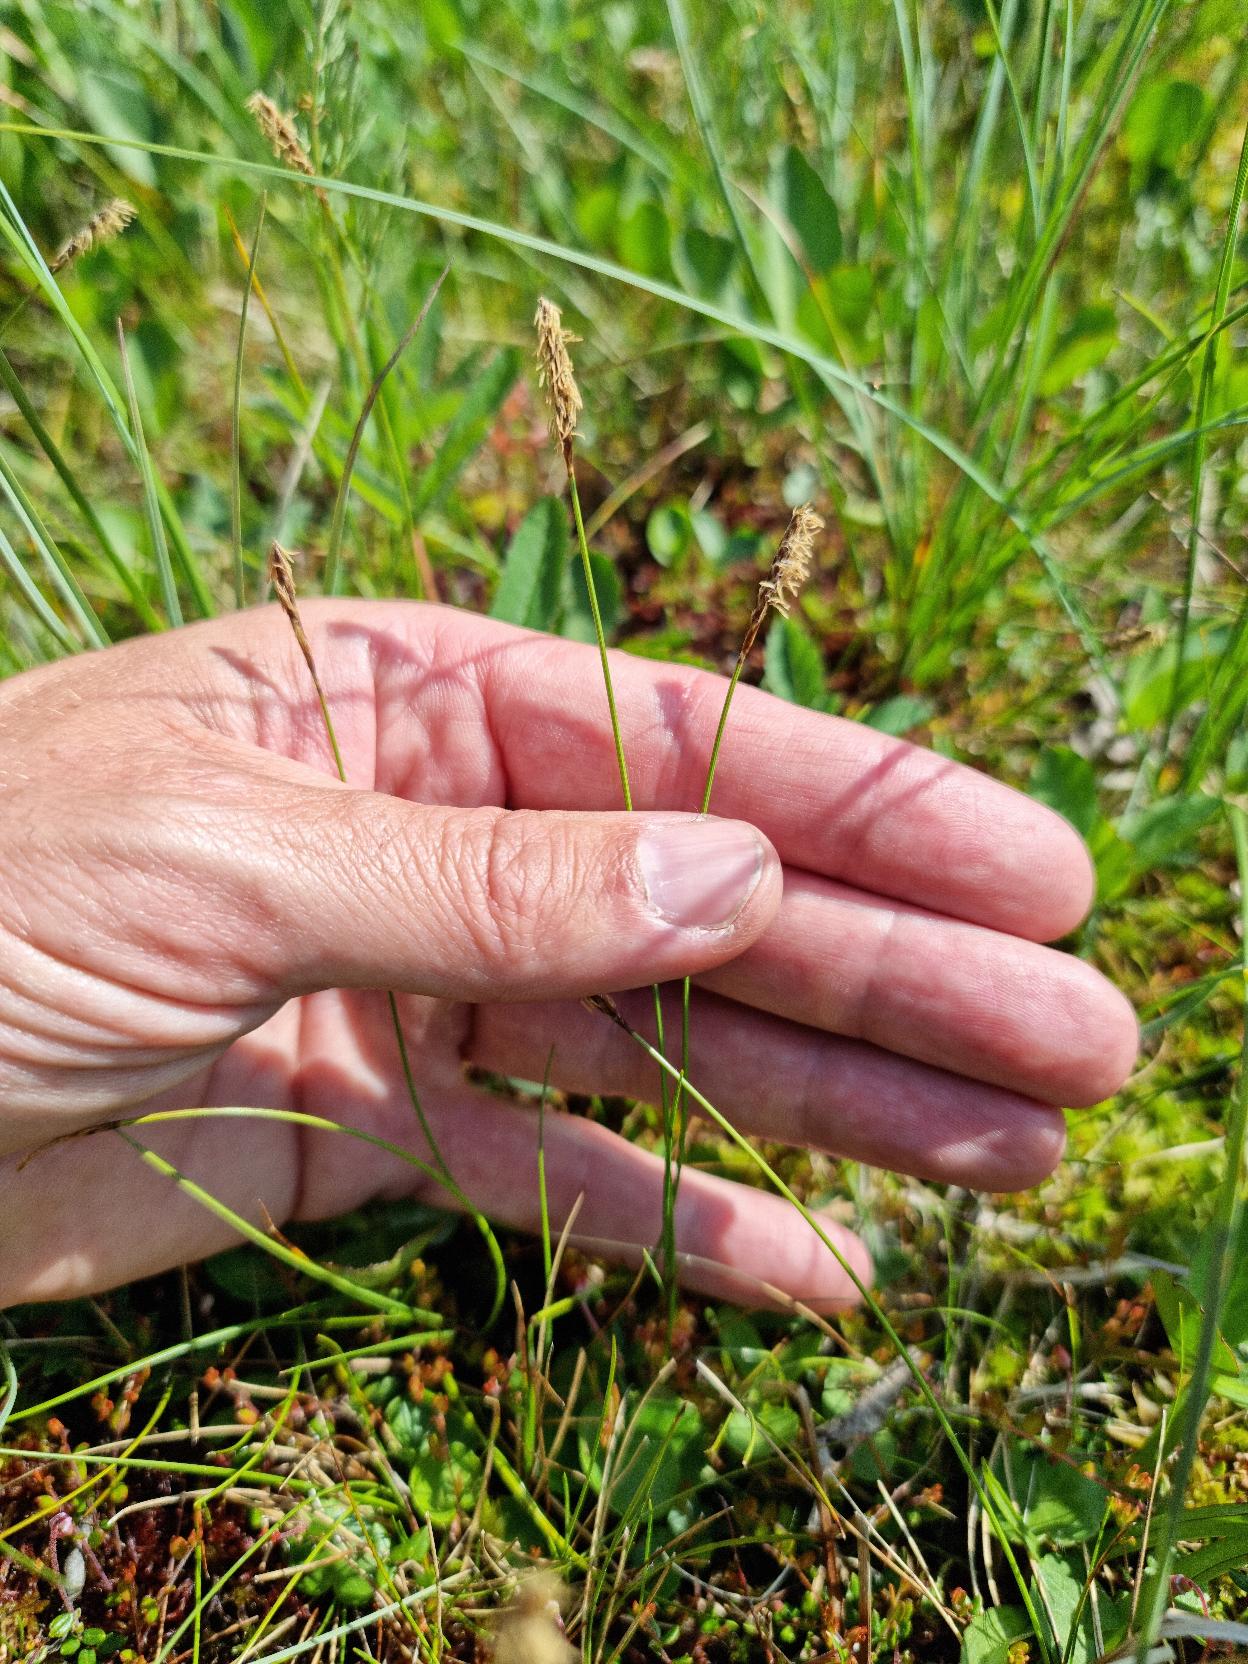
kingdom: Plantae
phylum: Tracheophyta
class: Liliopsida
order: Poales
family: Cyperaceae
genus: Carex
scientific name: Carex dioica
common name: Tvebo star
